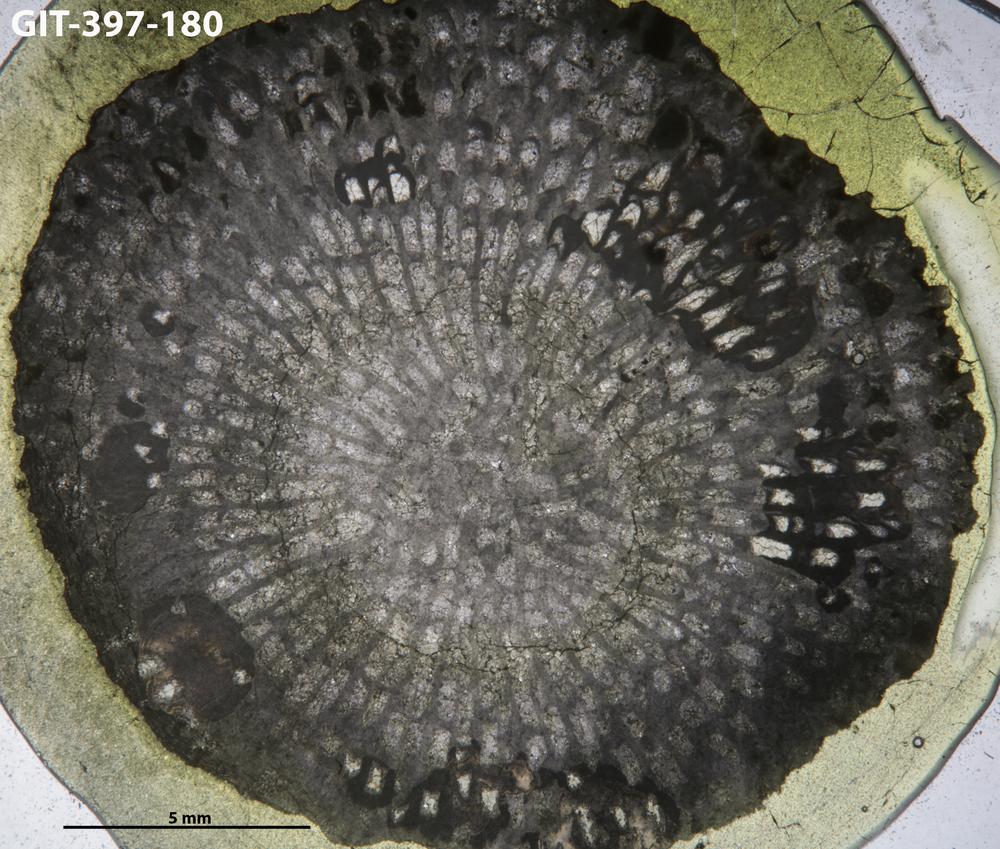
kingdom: Animalia
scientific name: Animalia
